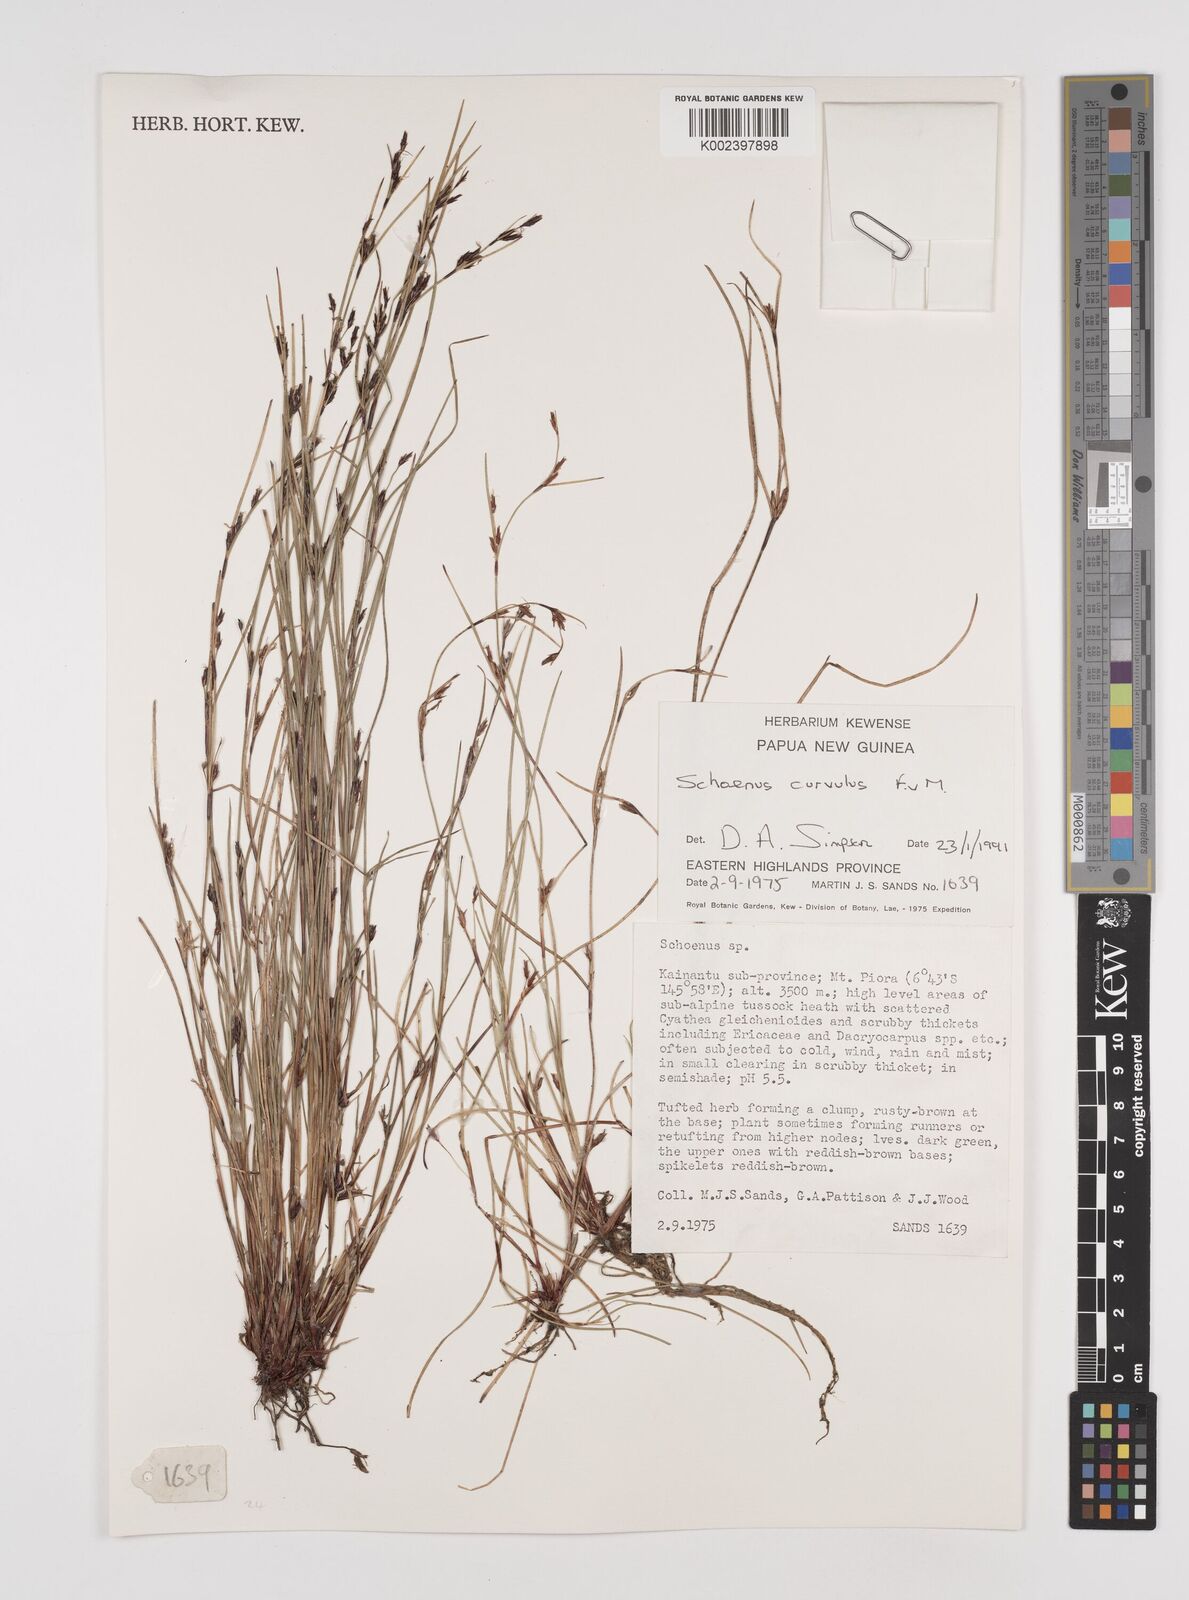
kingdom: Plantae
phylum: Tracheophyta
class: Liliopsida
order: Poales
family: Cyperaceae
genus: Schoenus
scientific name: Schoenus curvulus
